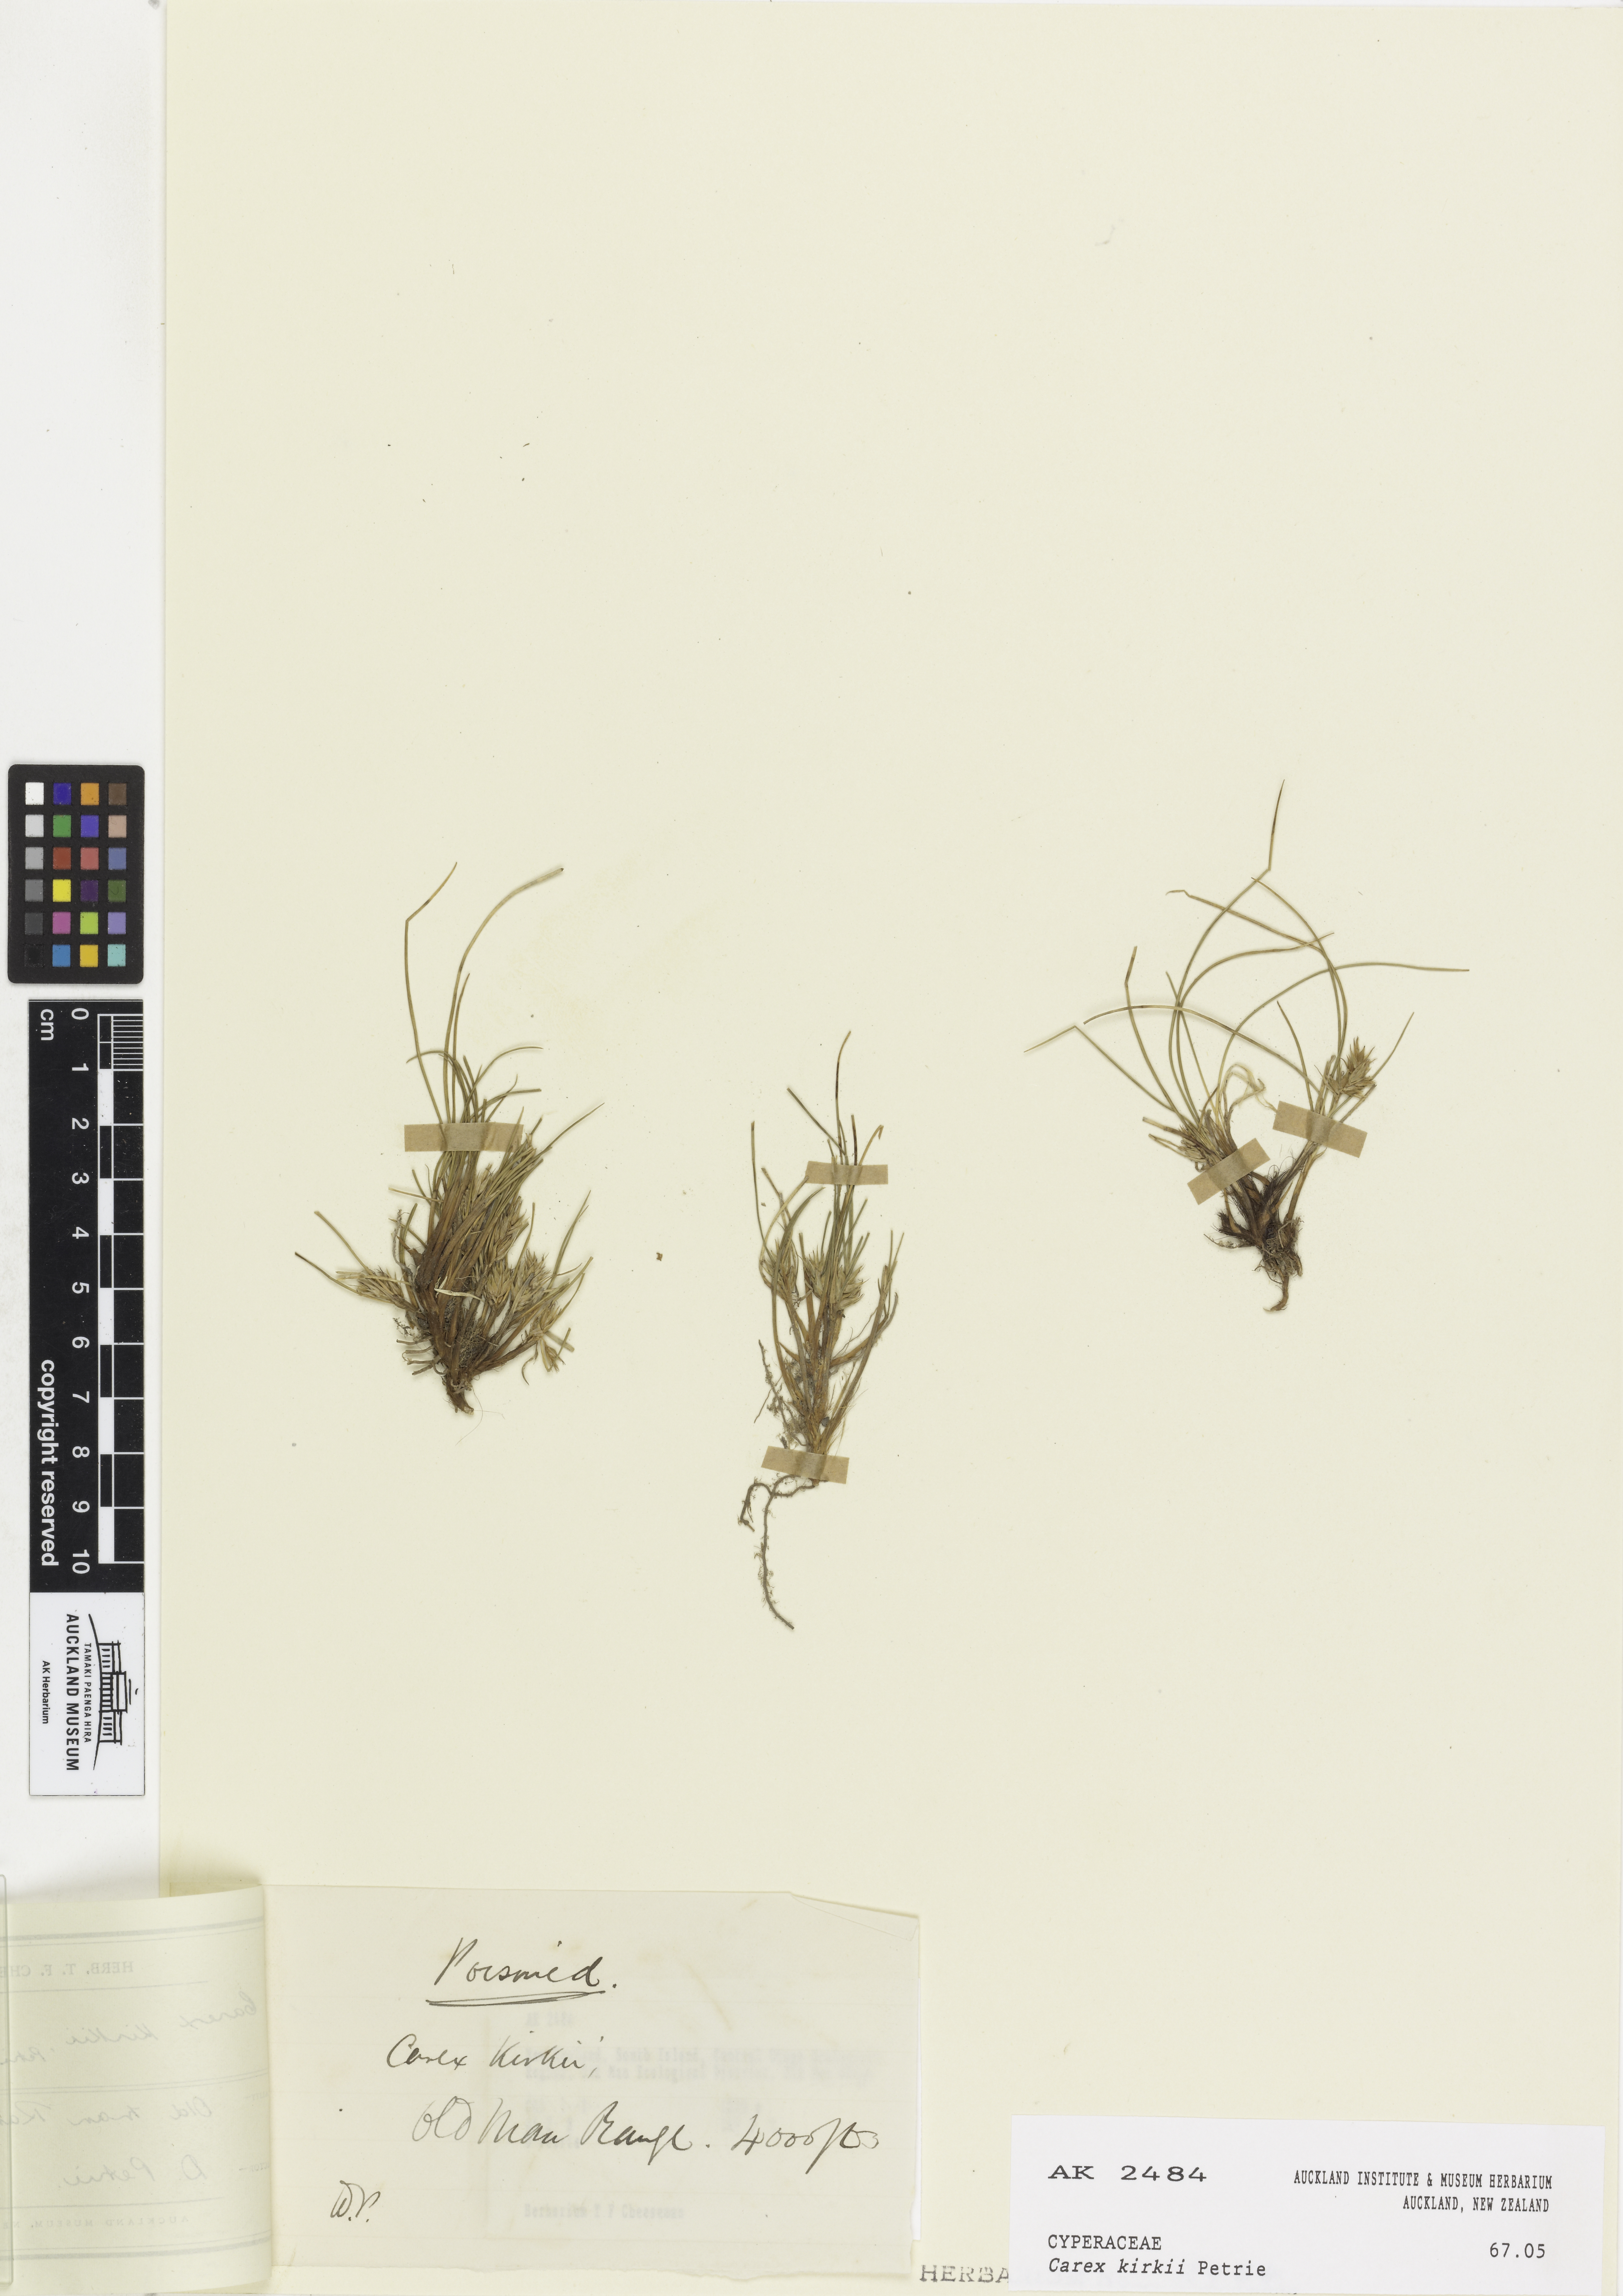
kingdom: Plantae
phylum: Tracheophyta
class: Liliopsida
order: Poales
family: Cyperaceae
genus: Carex
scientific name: Carex kirkii
